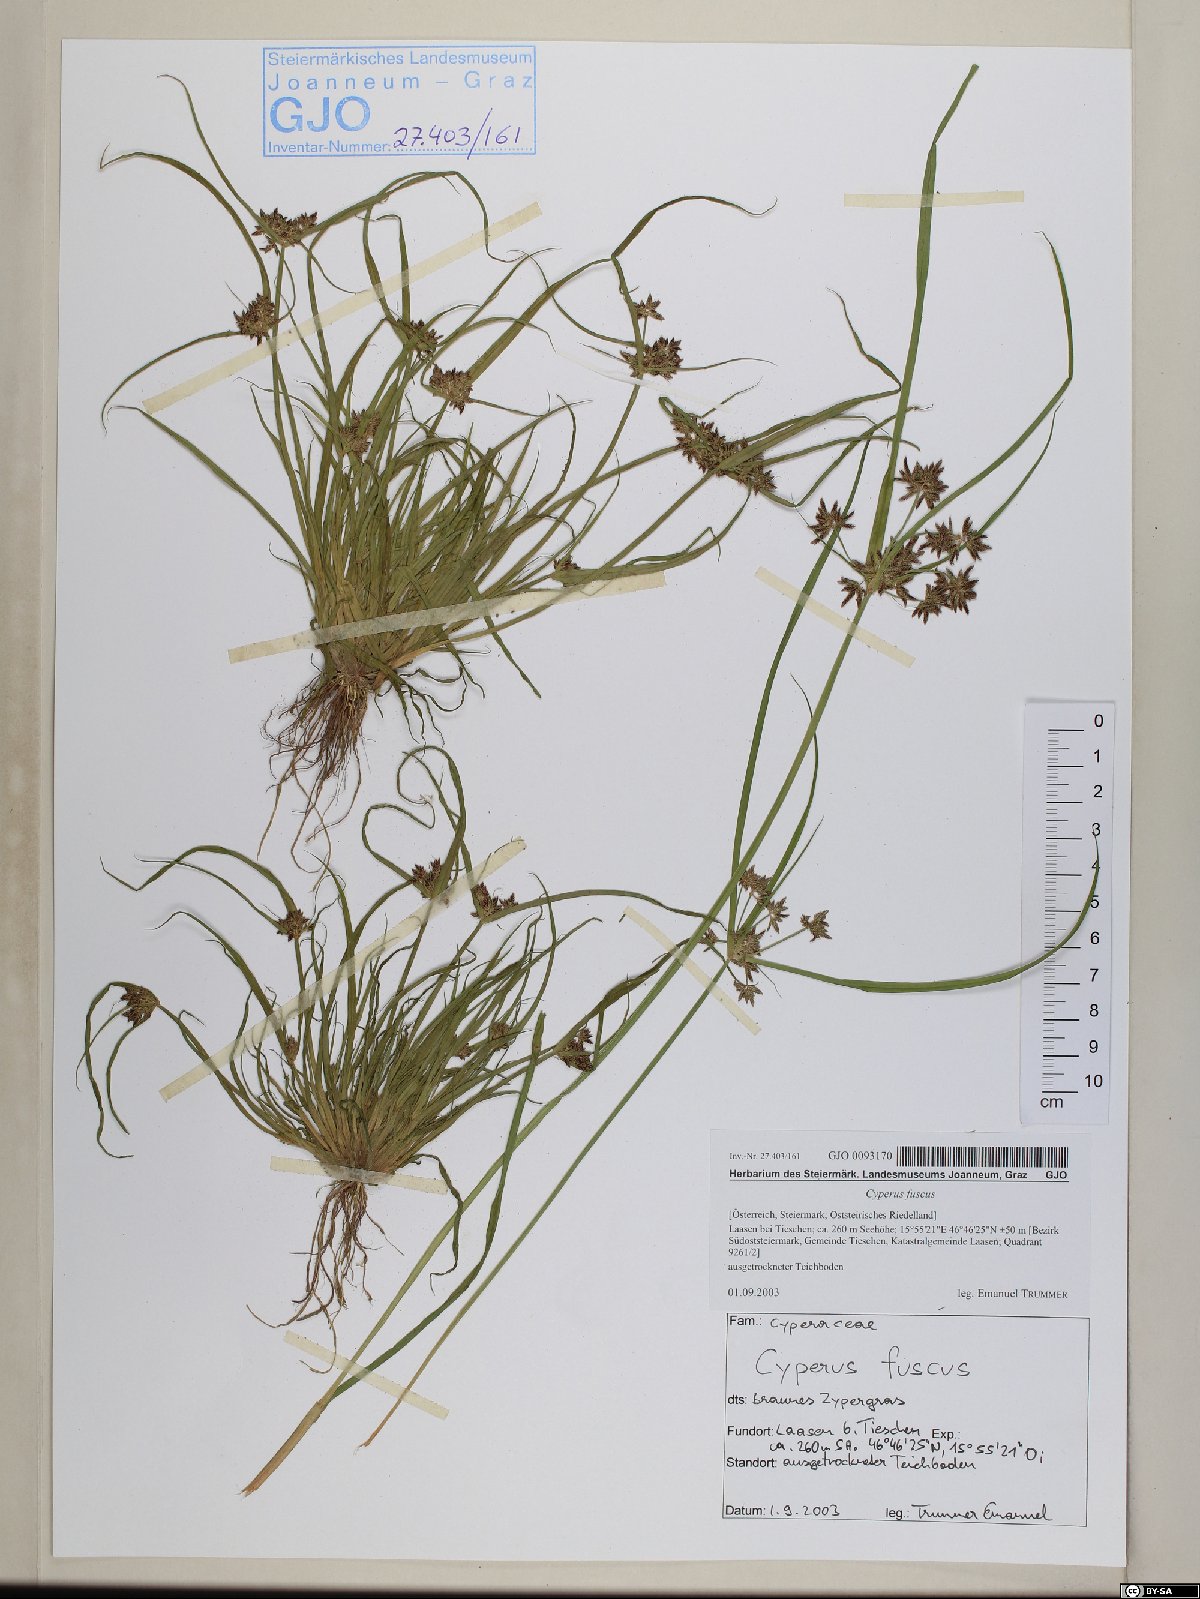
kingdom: Plantae
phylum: Tracheophyta
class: Liliopsida
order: Poales
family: Cyperaceae
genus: Cyperus
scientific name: Cyperus fuscus
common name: Brown galingale
